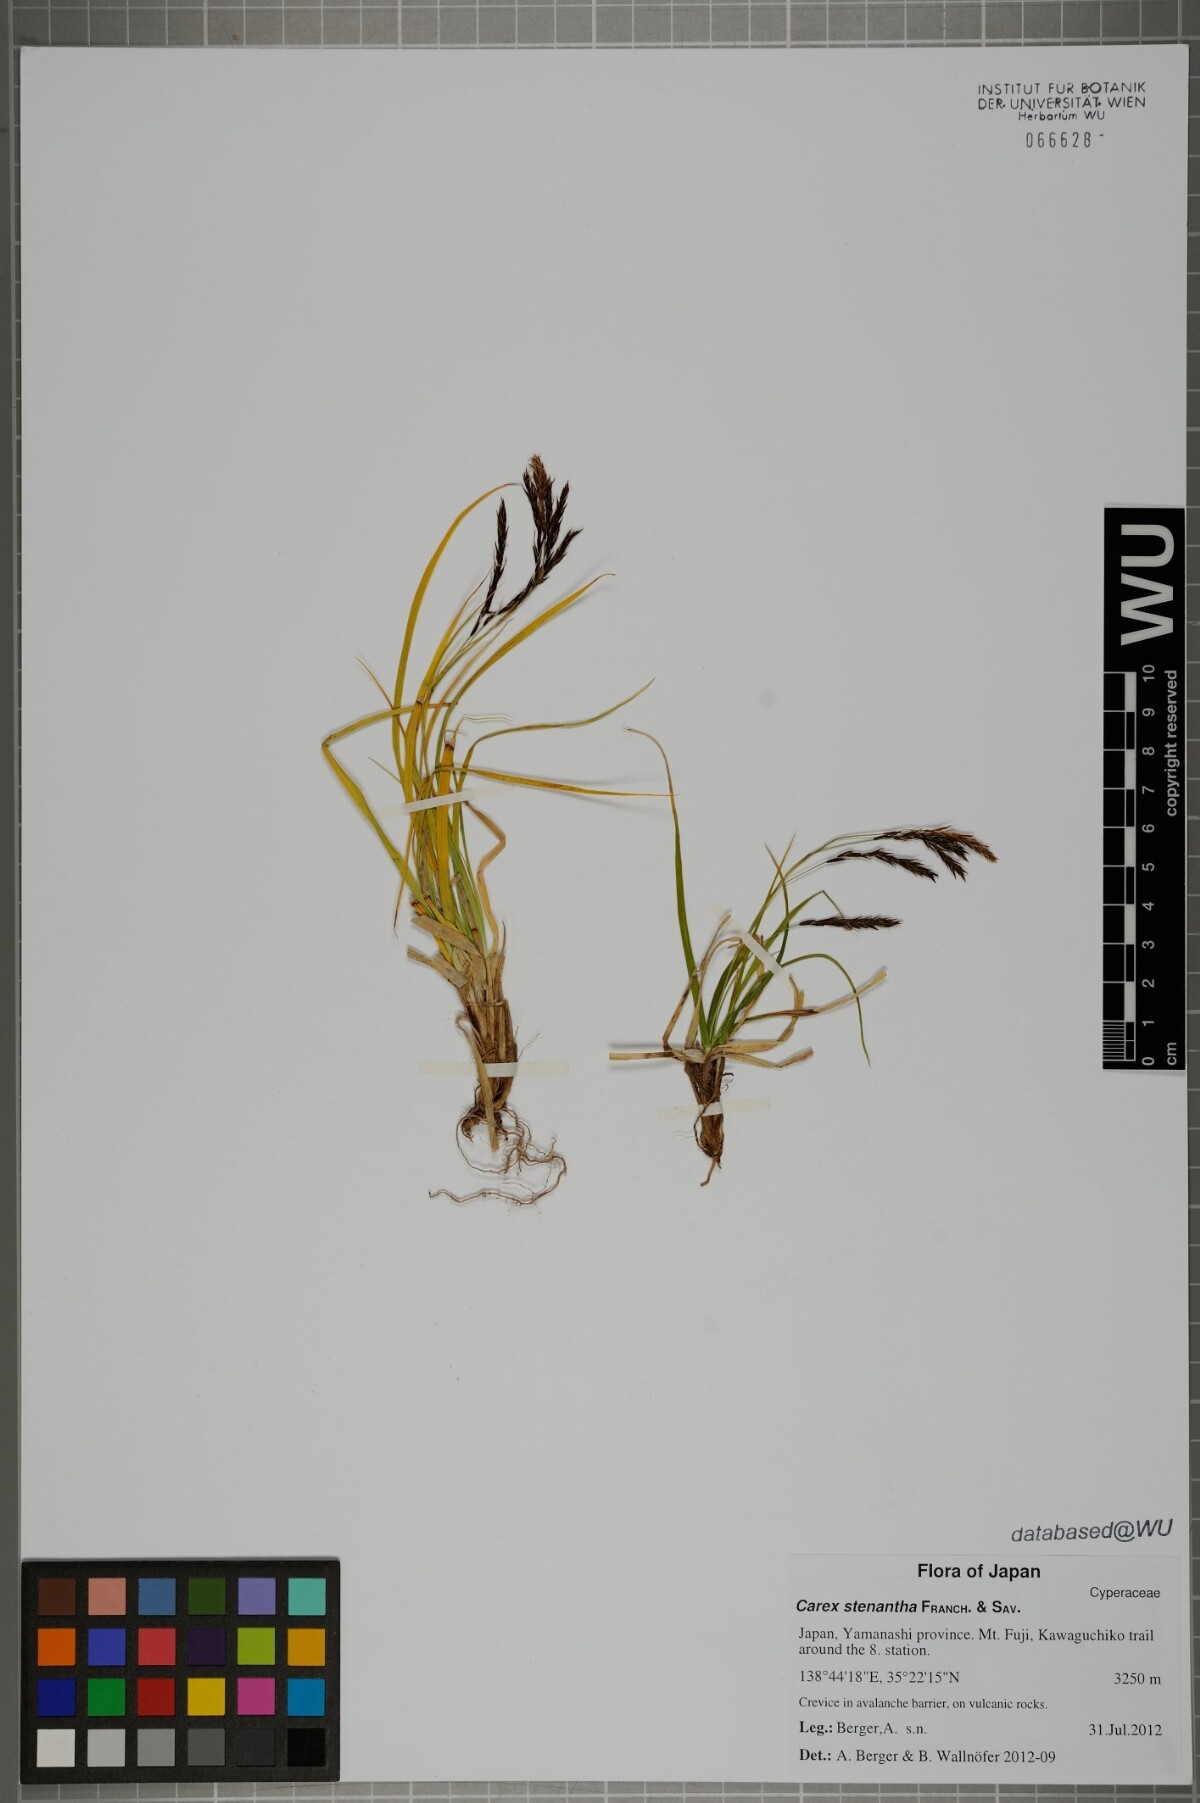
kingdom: Plantae
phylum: Tracheophyta
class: Liliopsida
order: Poales
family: Cyperaceae
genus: Carex
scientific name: Carex stenantha
